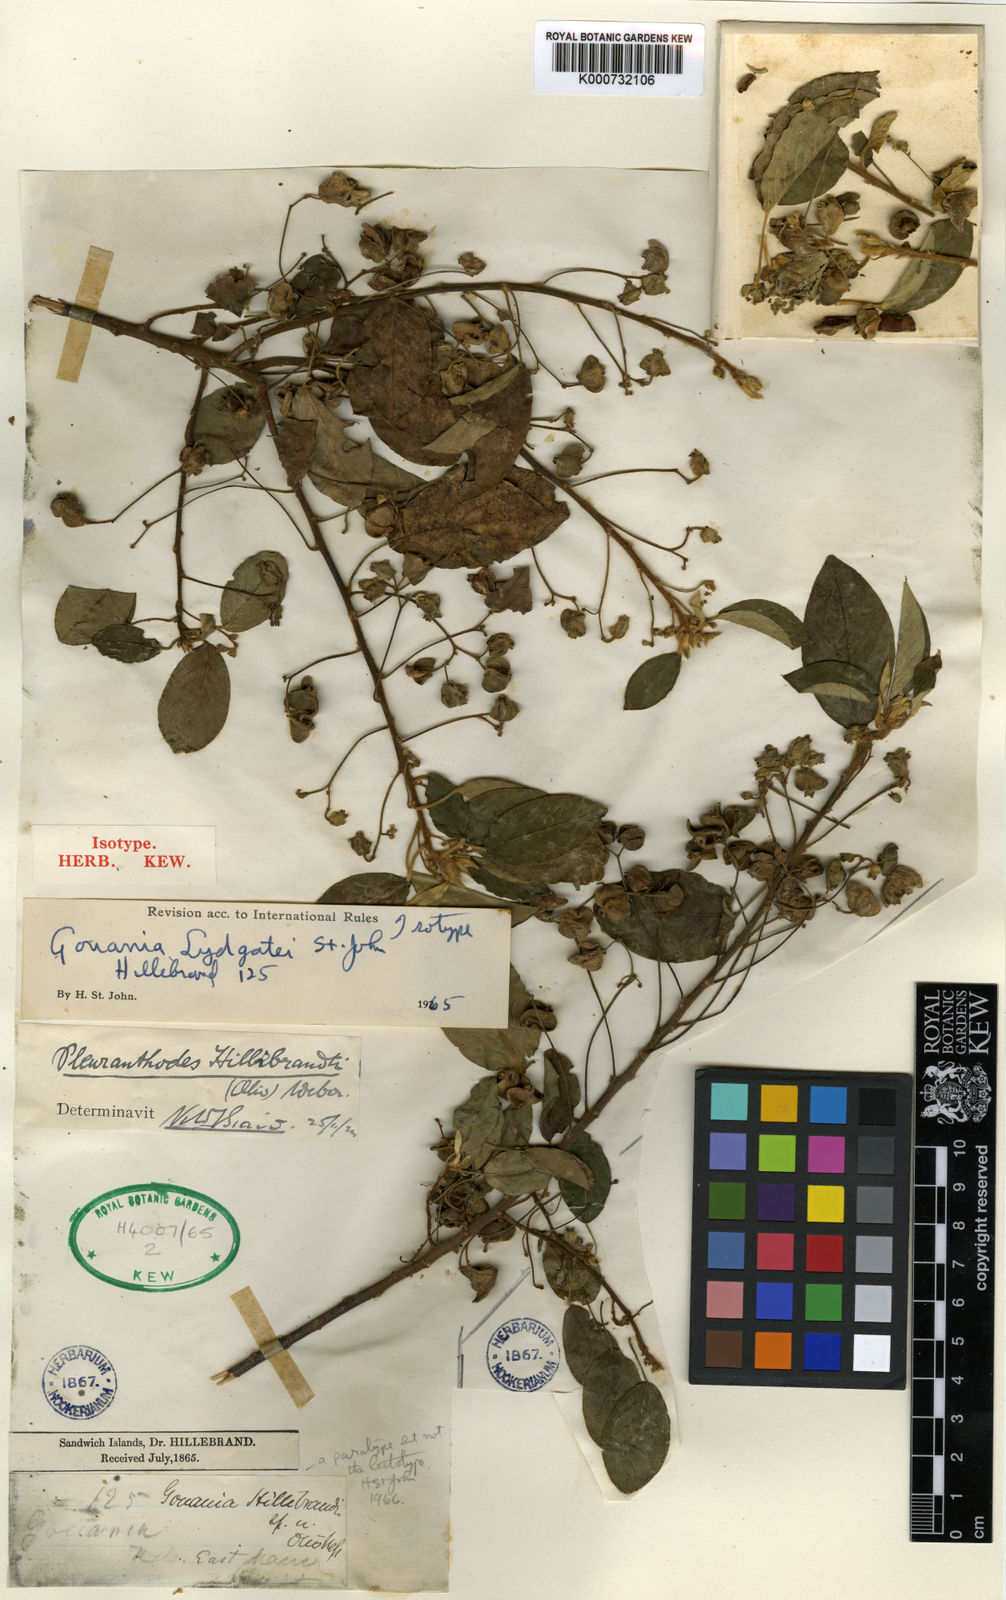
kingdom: Plantae
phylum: Tracheophyta
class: Magnoliopsida
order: Rosales
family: Rhamnaceae
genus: Gouania
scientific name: Gouania hillebrandii
